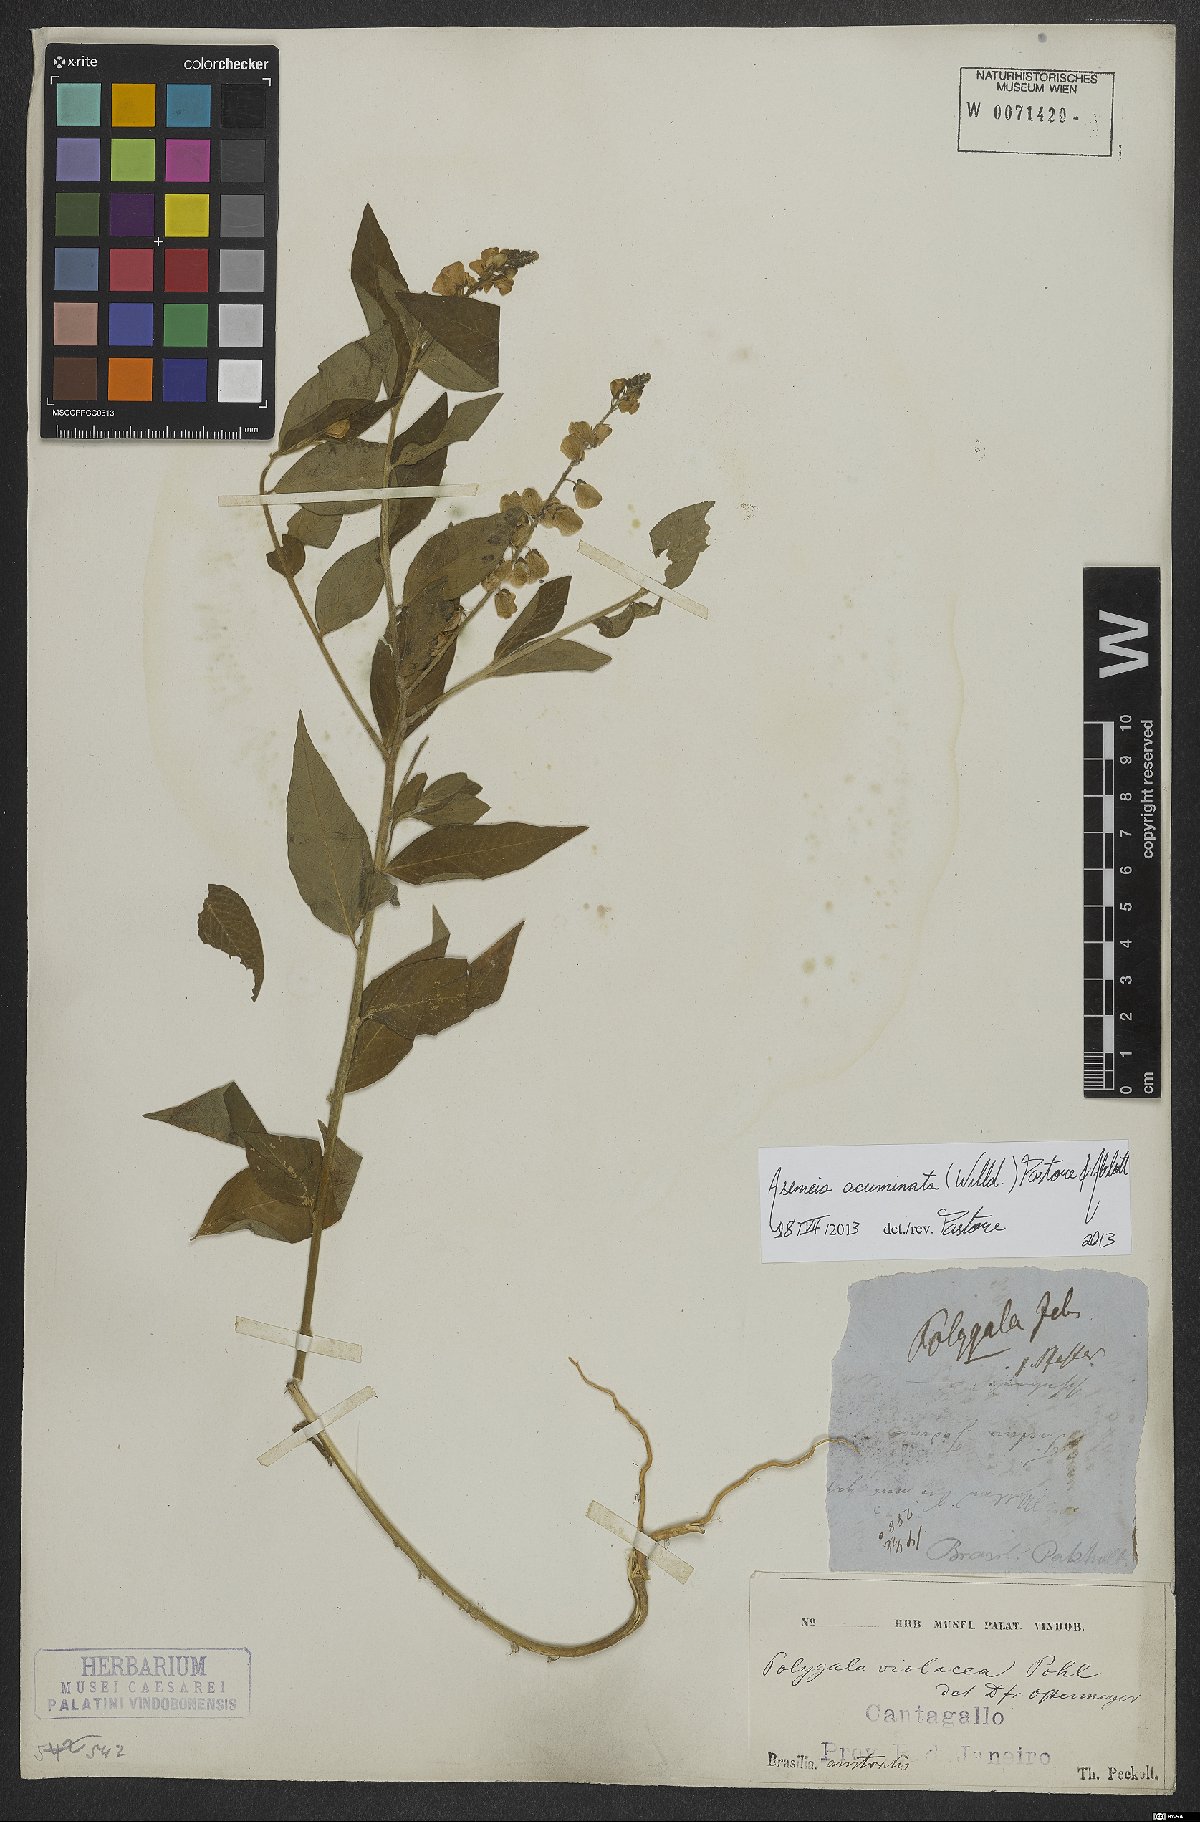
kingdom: Plantae
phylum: Tracheophyta
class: Magnoliopsida
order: Fabales
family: Polygalaceae
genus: Asemeia
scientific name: Asemeia acuminata
